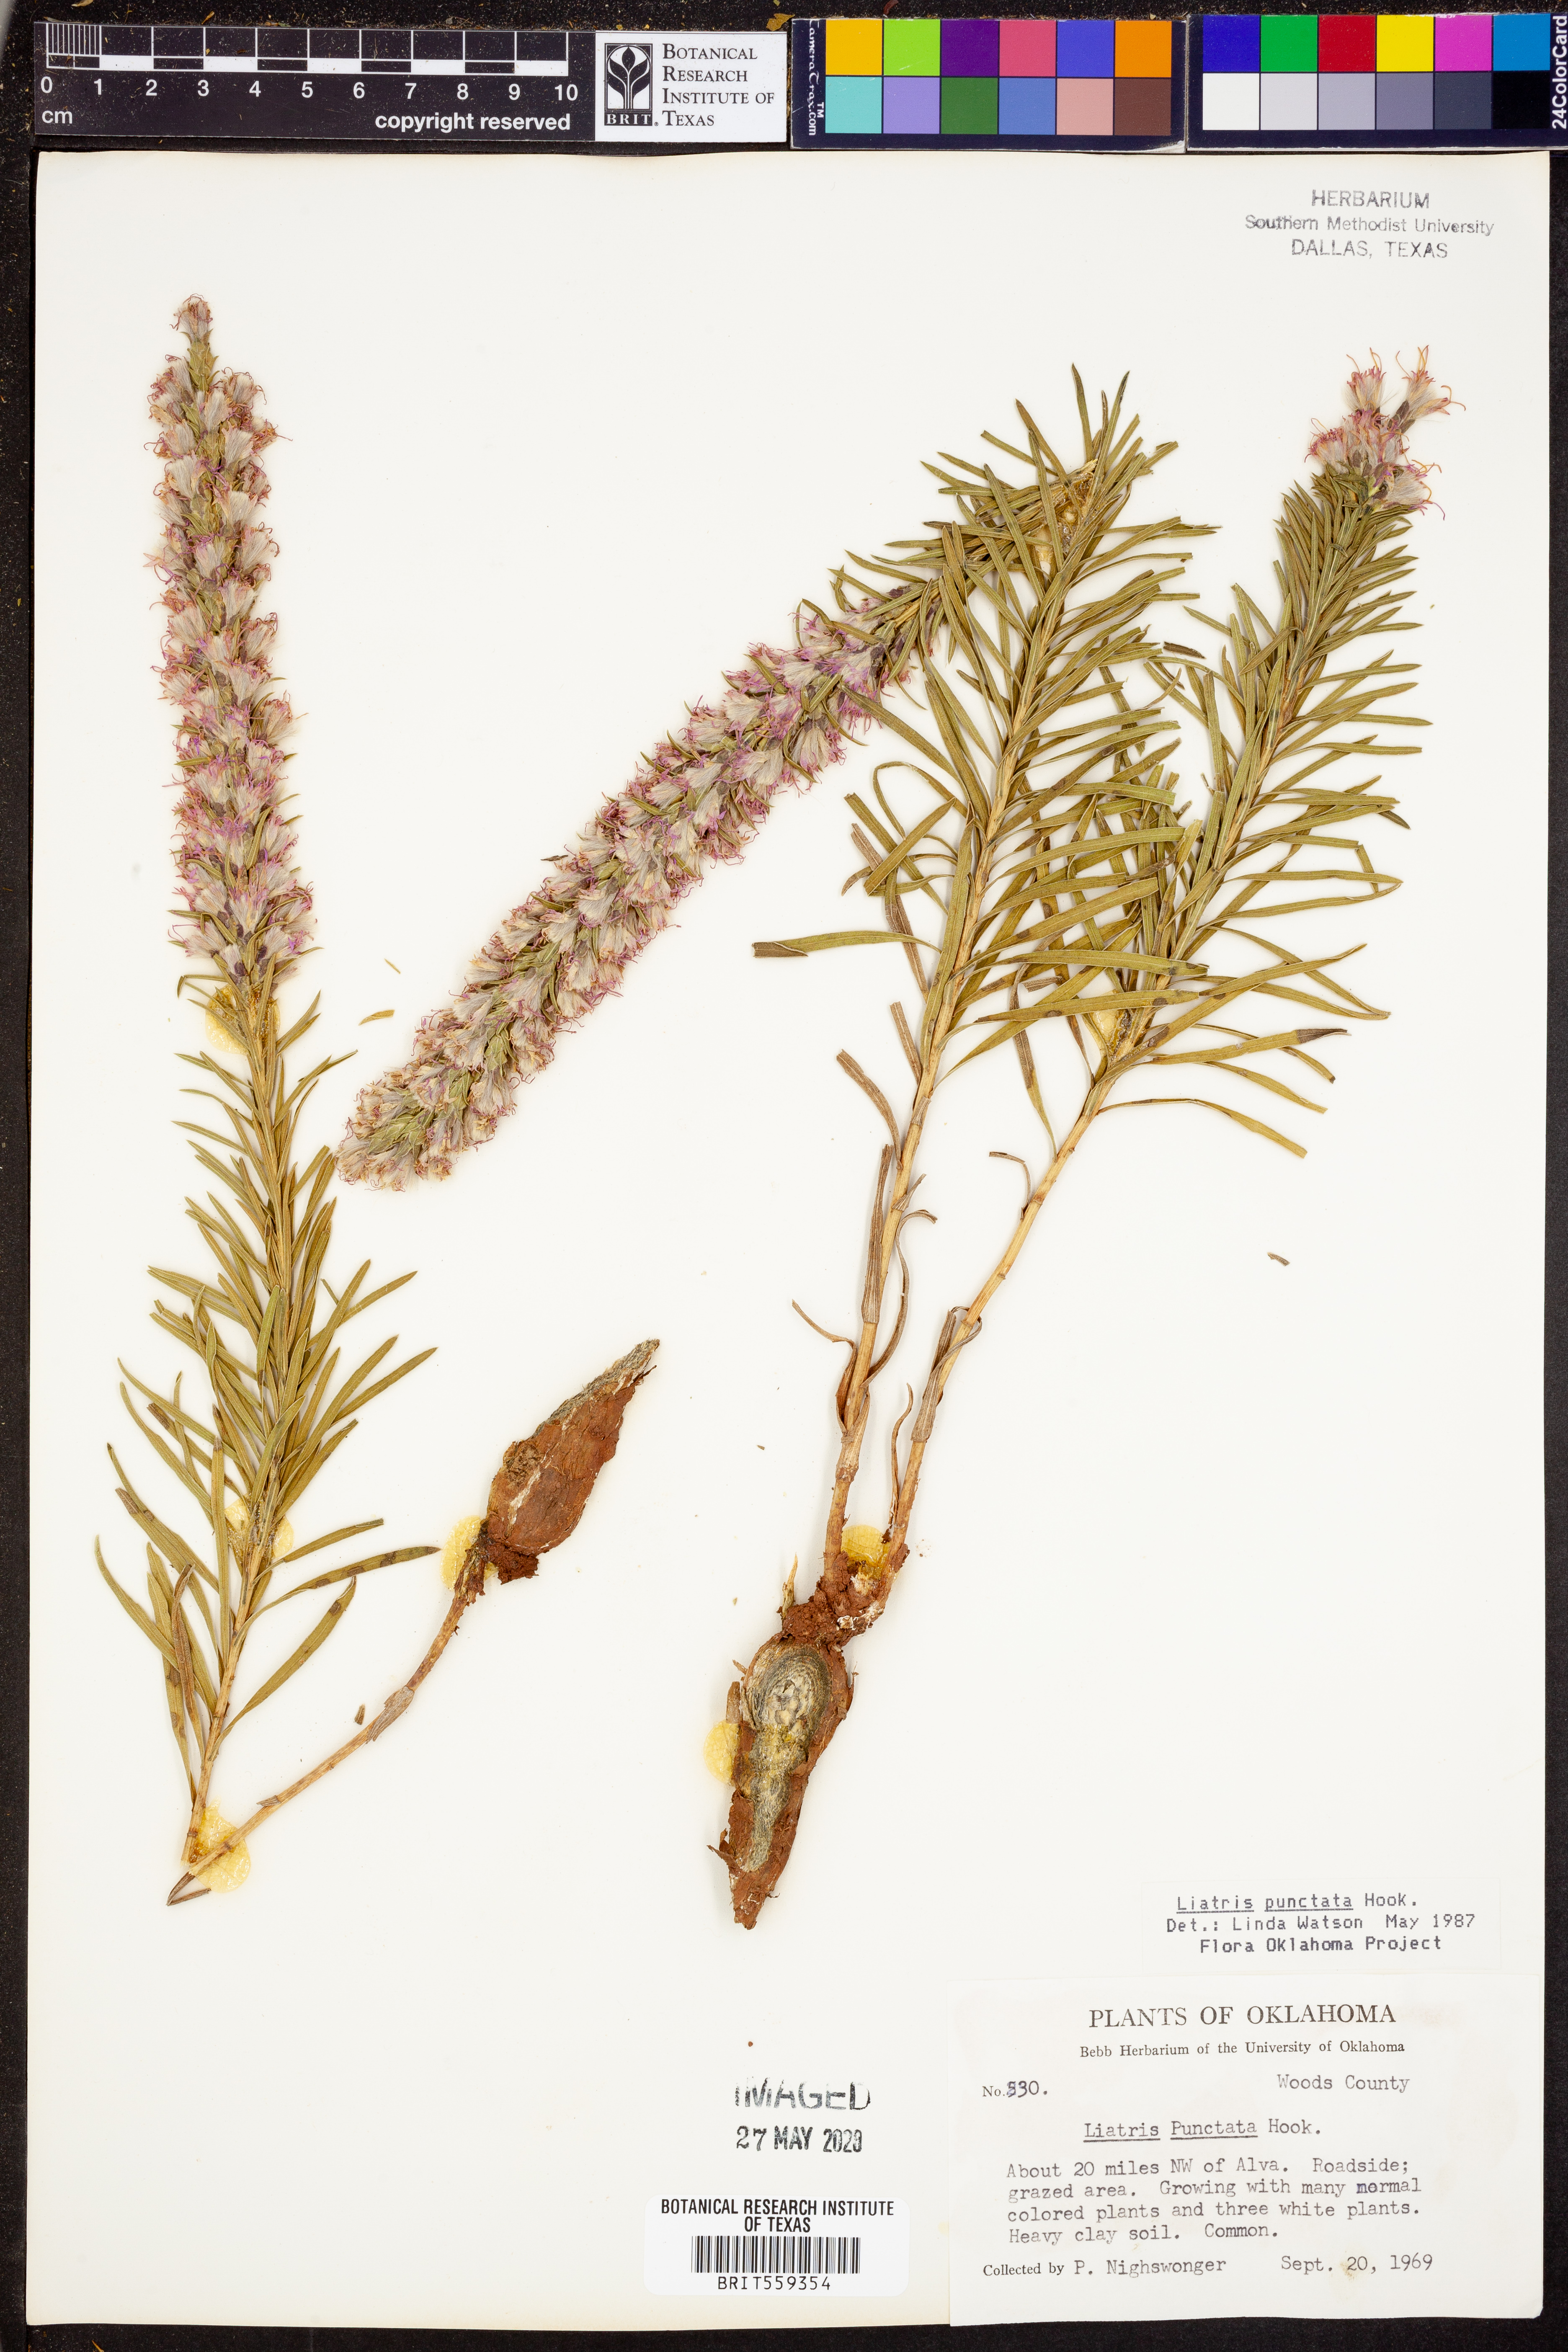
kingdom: Plantae
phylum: Tracheophyta
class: Magnoliopsida
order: Asterales
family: Asteraceae
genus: Liatris
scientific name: Liatris punctata
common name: Dotted gayfeather
